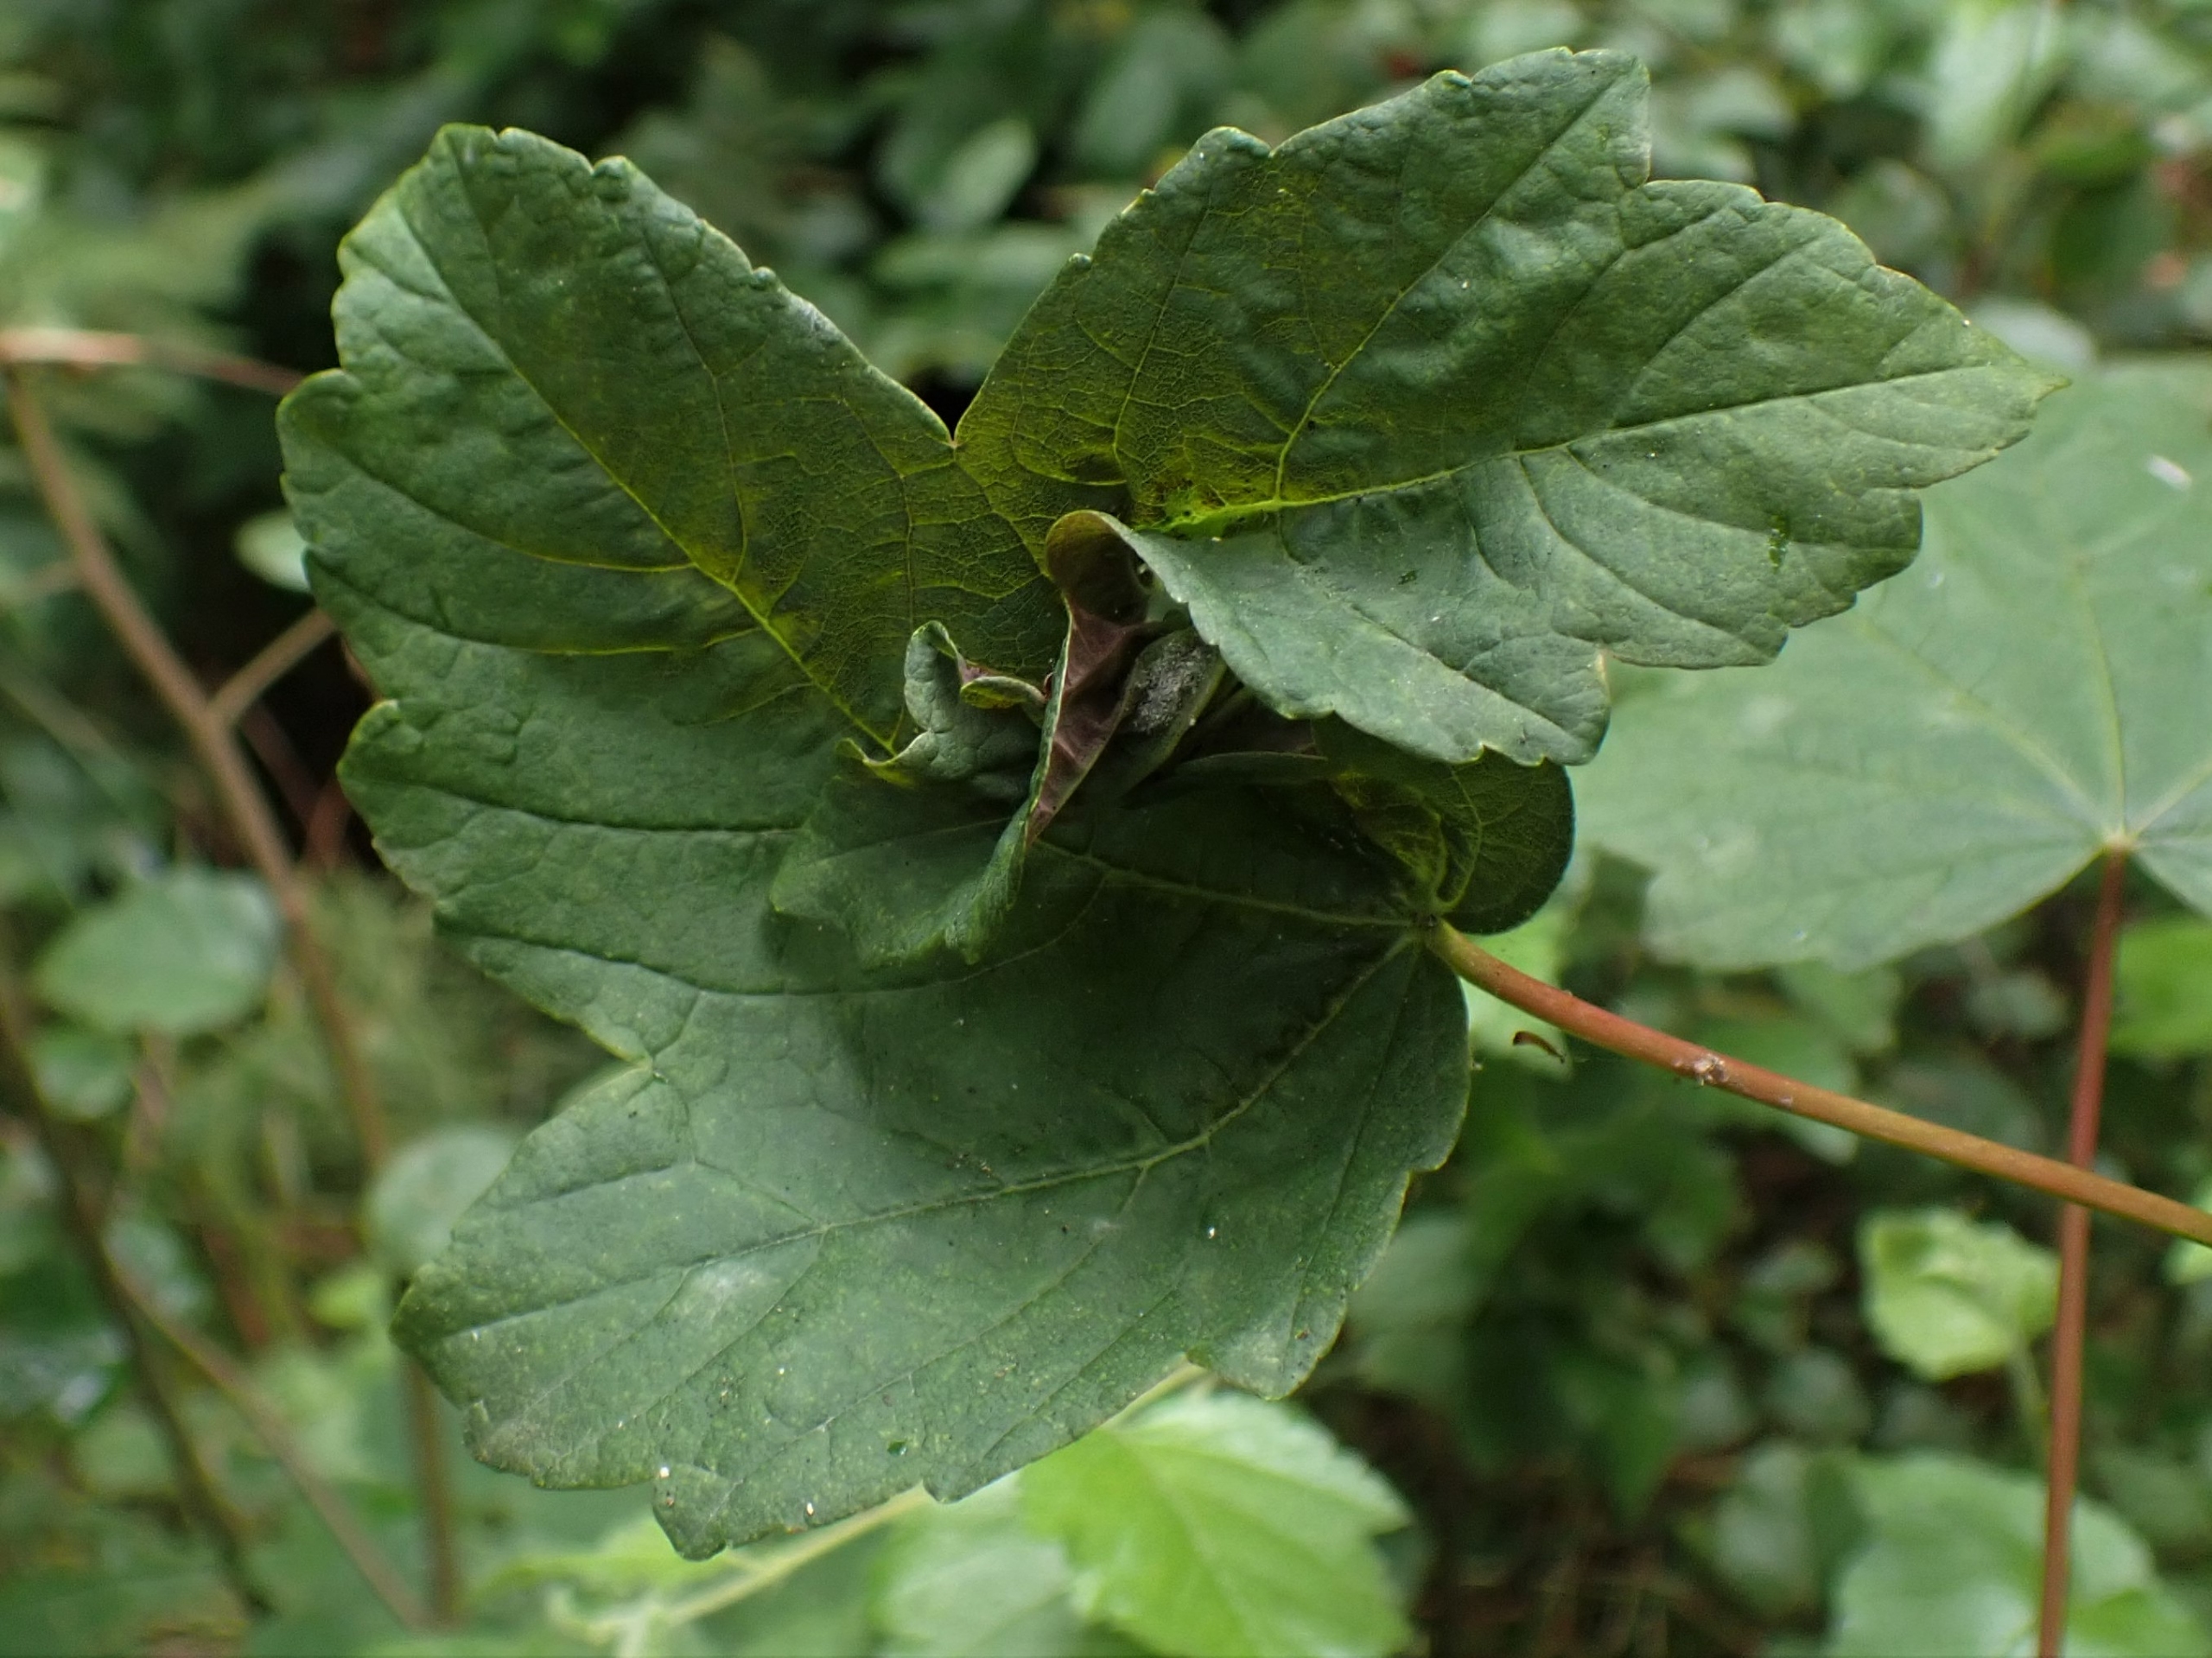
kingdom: Animalia
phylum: Arthropoda
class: Insecta
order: Diptera
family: Cecidomyiidae
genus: Dasineura
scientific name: Dasineura irregularis
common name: Ahornkrusegalmyg
